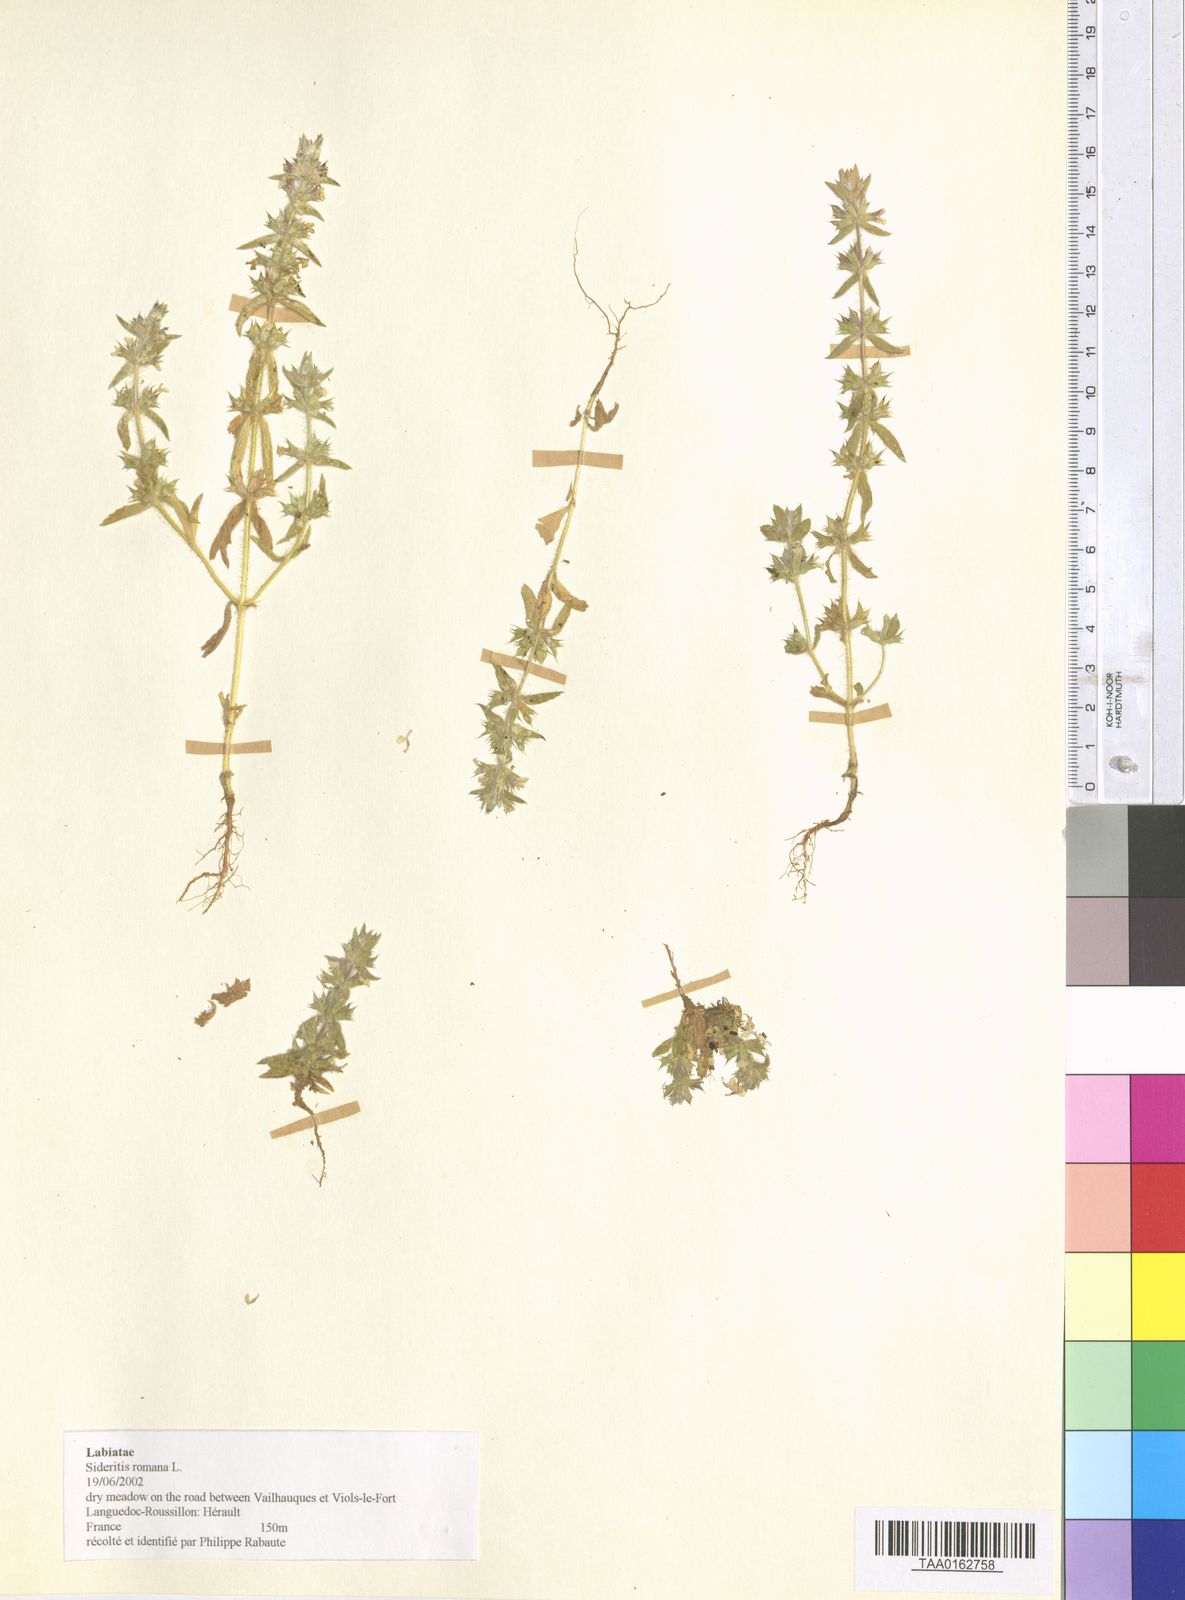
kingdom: Plantae
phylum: Tracheophyta
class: Magnoliopsida
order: Lamiales
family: Lamiaceae
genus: Sideritis
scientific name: Sideritis romana
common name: Simplebeak ironwort
